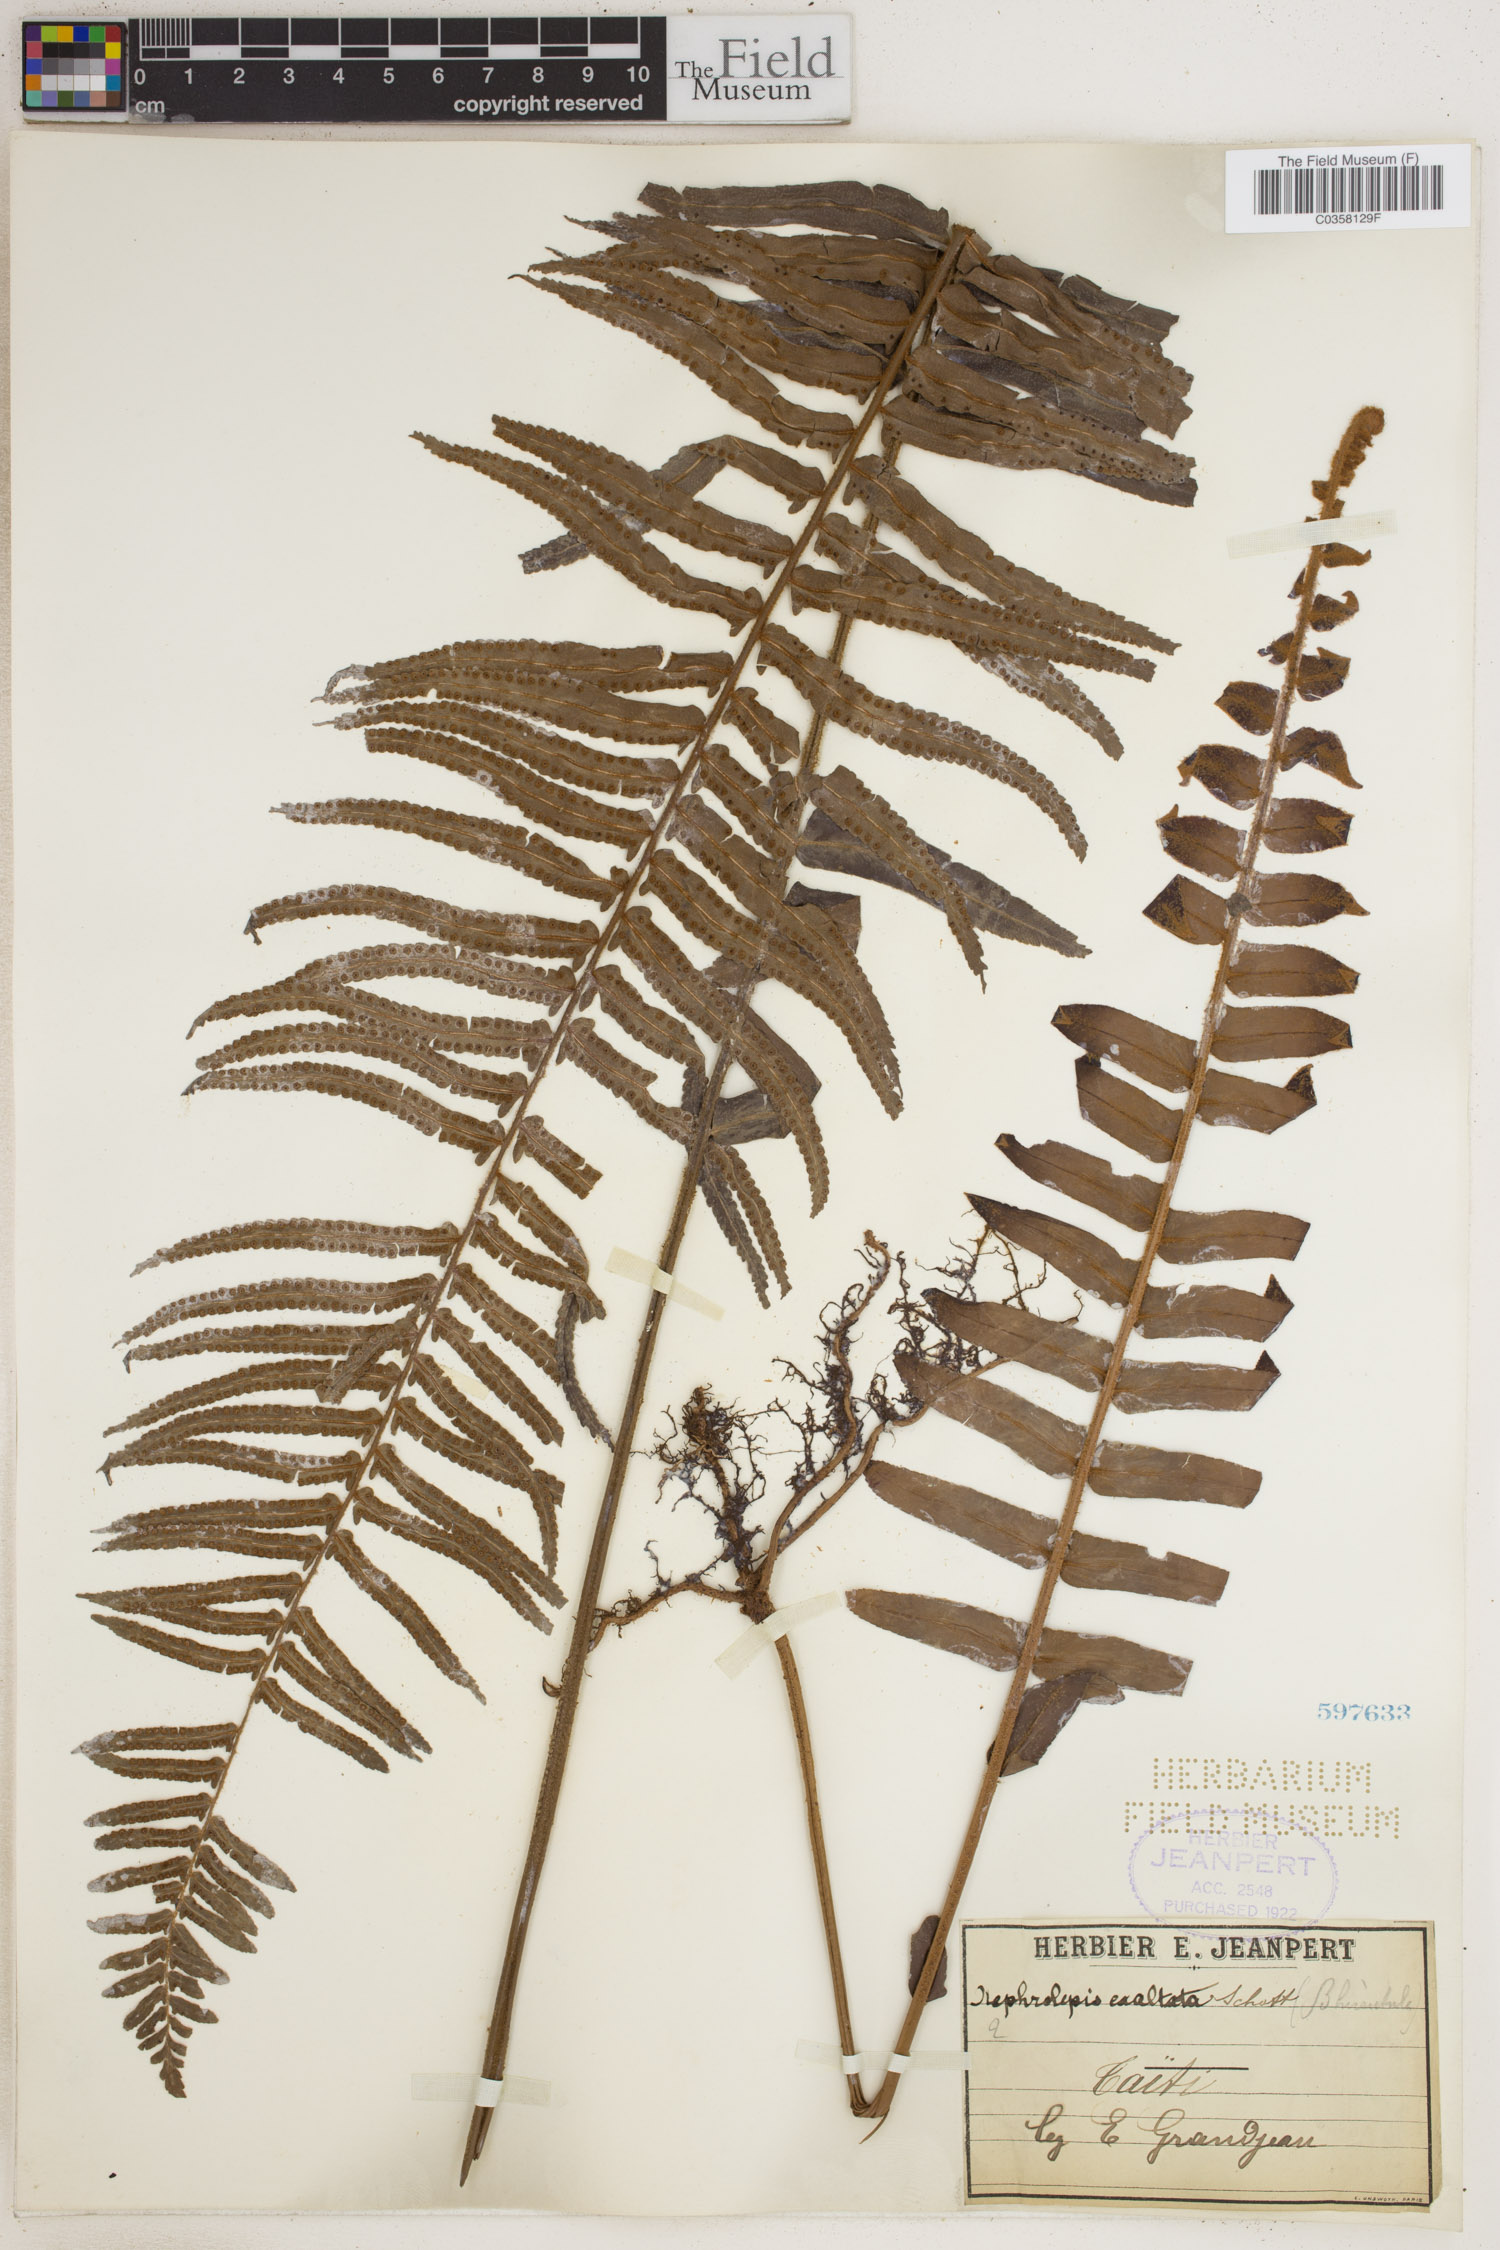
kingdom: Plantae
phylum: Tracheophyta
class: Polypodiopsida
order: Polypodiales
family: Nephrolepidaceae
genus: Nephrolepis
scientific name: Nephrolepis cordifolia
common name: Narrow swordfern
